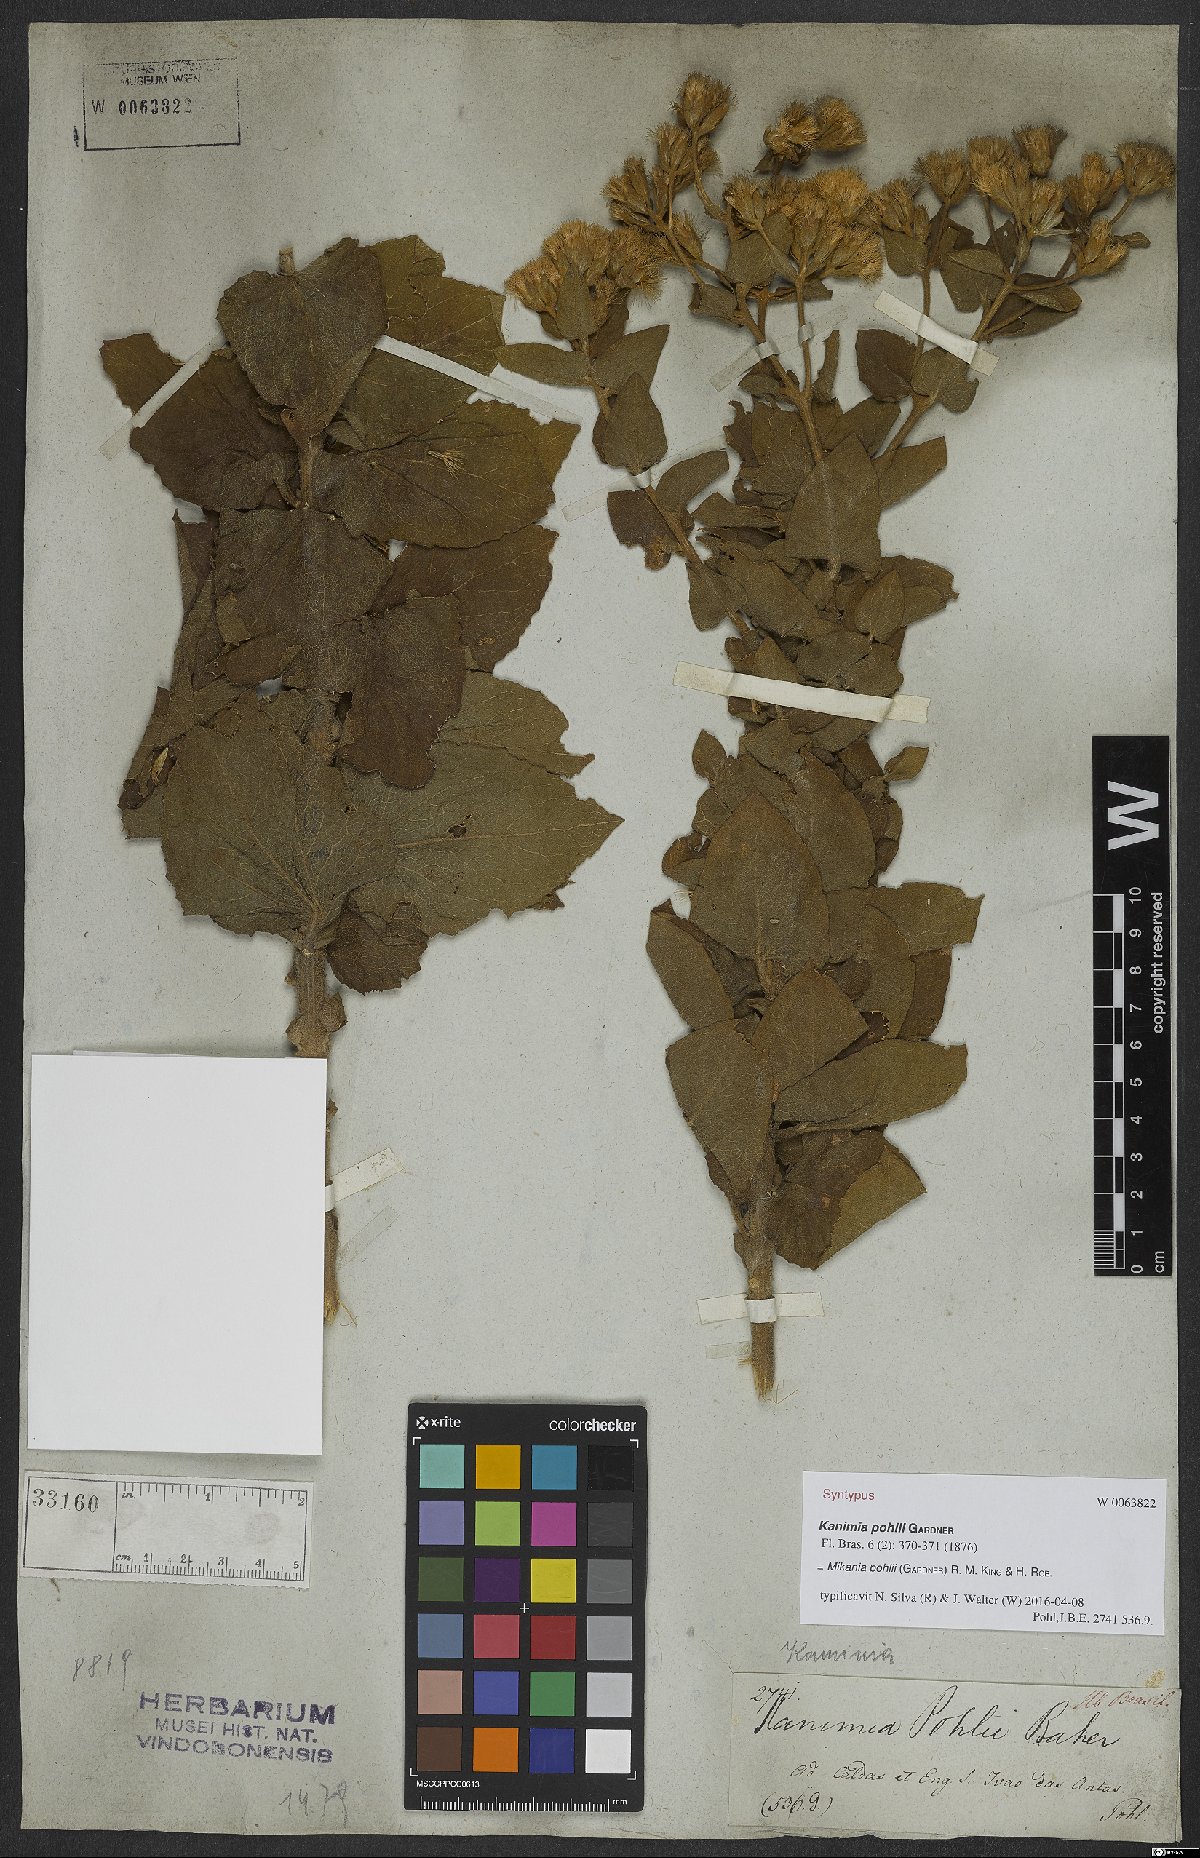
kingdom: Plantae
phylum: Tracheophyta
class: Magnoliopsida
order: Asterales
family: Asteraceae
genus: Mikania
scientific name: Mikania pohlii
